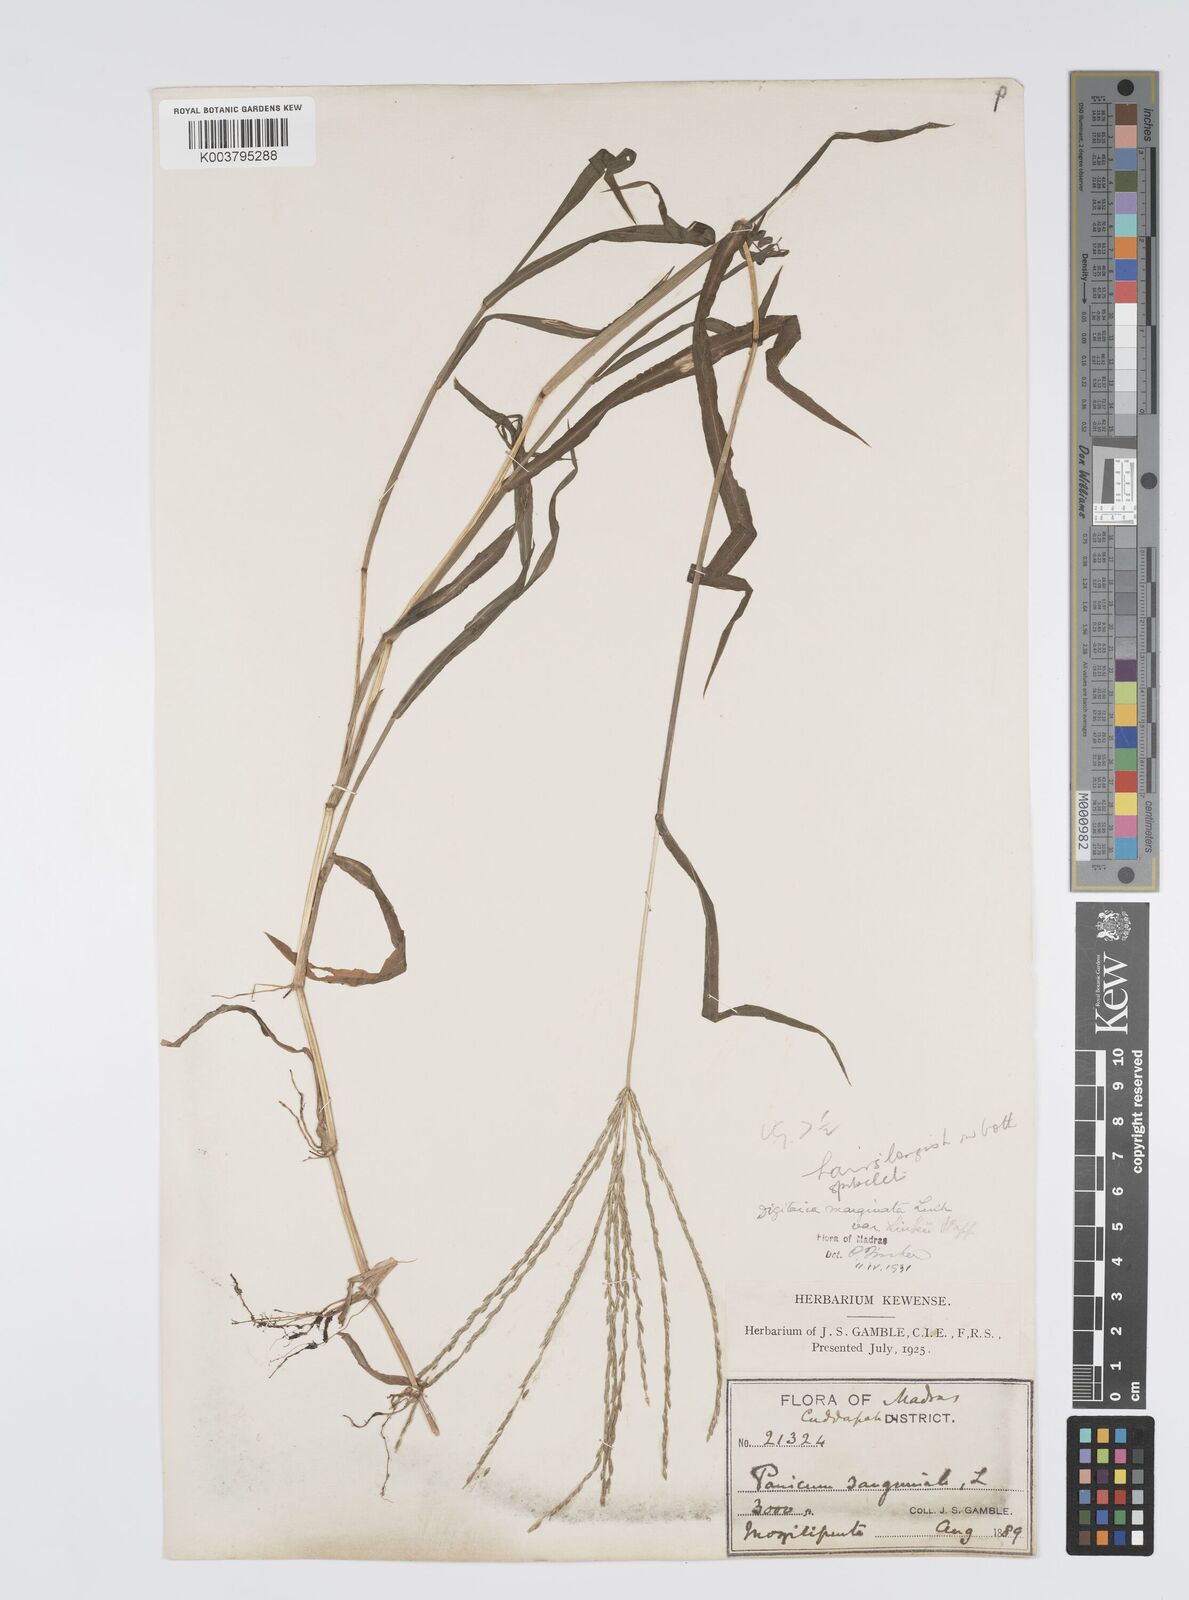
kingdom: Plantae
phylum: Tracheophyta
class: Liliopsida
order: Poales
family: Poaceae
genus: Digitaria
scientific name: Digitaria spec
